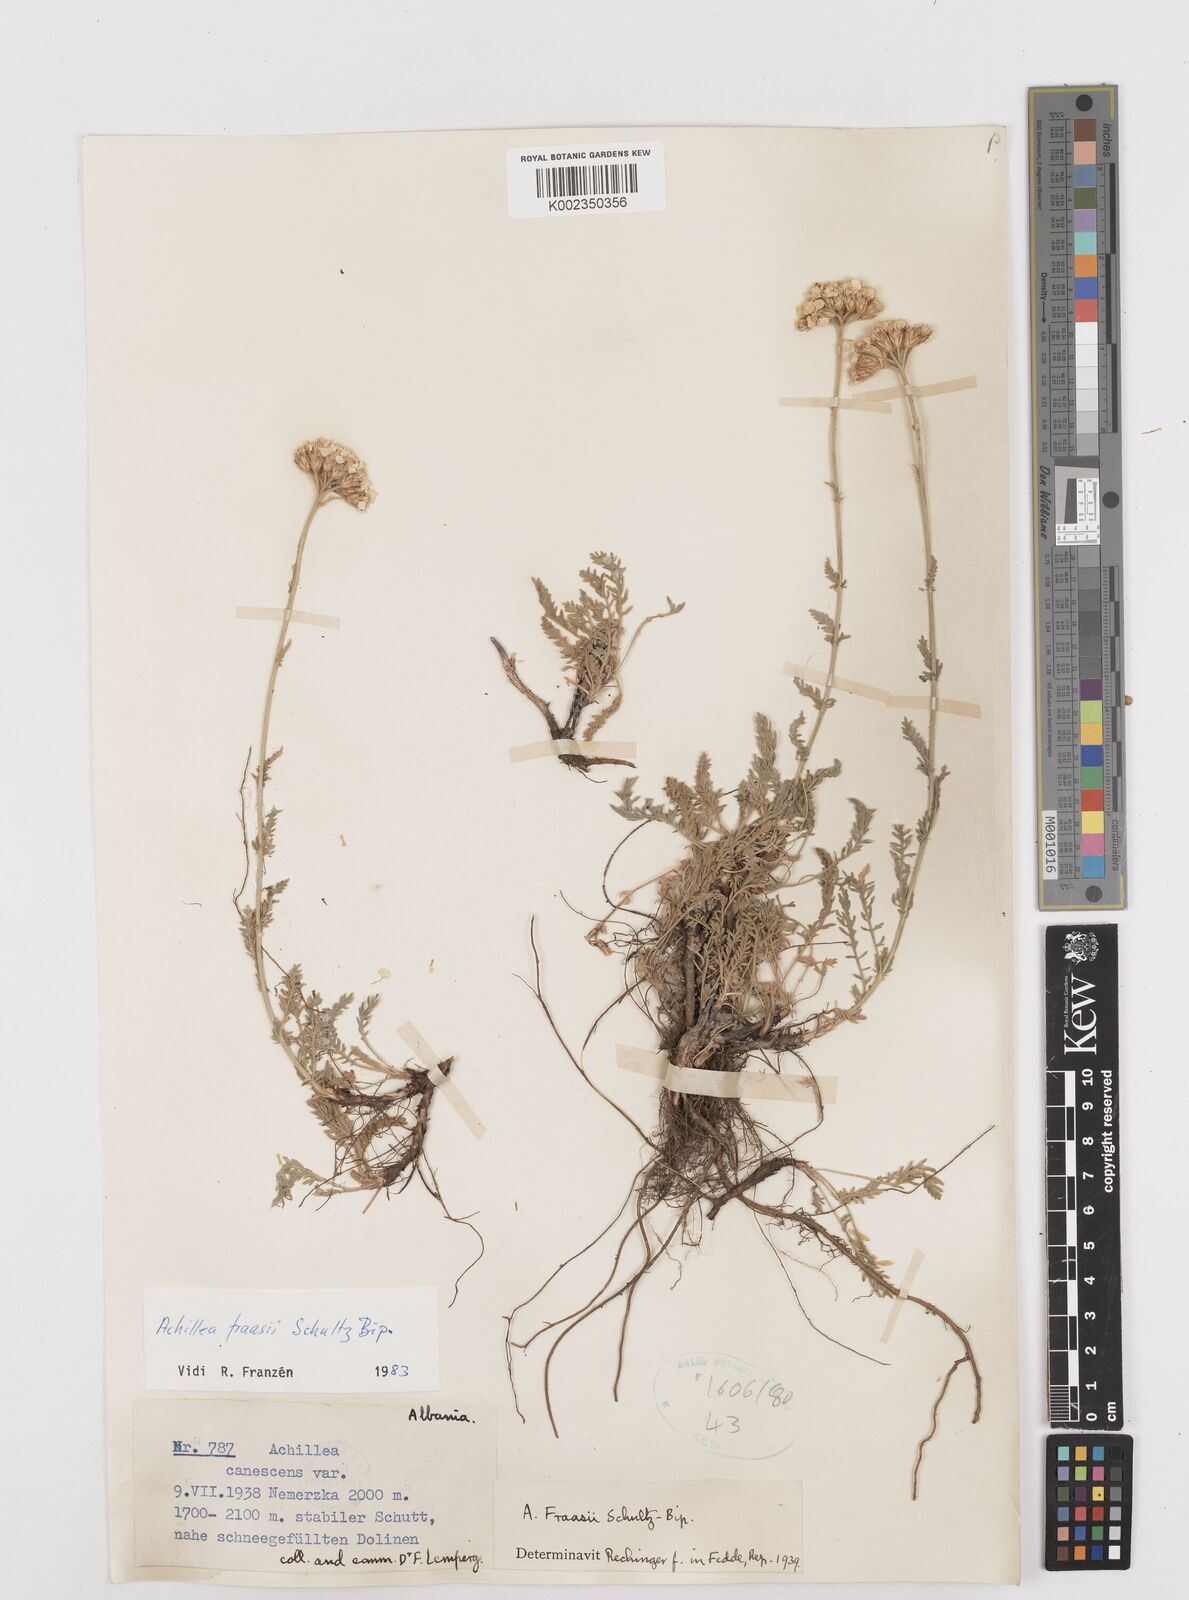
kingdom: Plantae
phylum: Tracheophyta
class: Magnoliopsida
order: Asterales
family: Asteraceae
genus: Achillea
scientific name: Achillea fraasii
